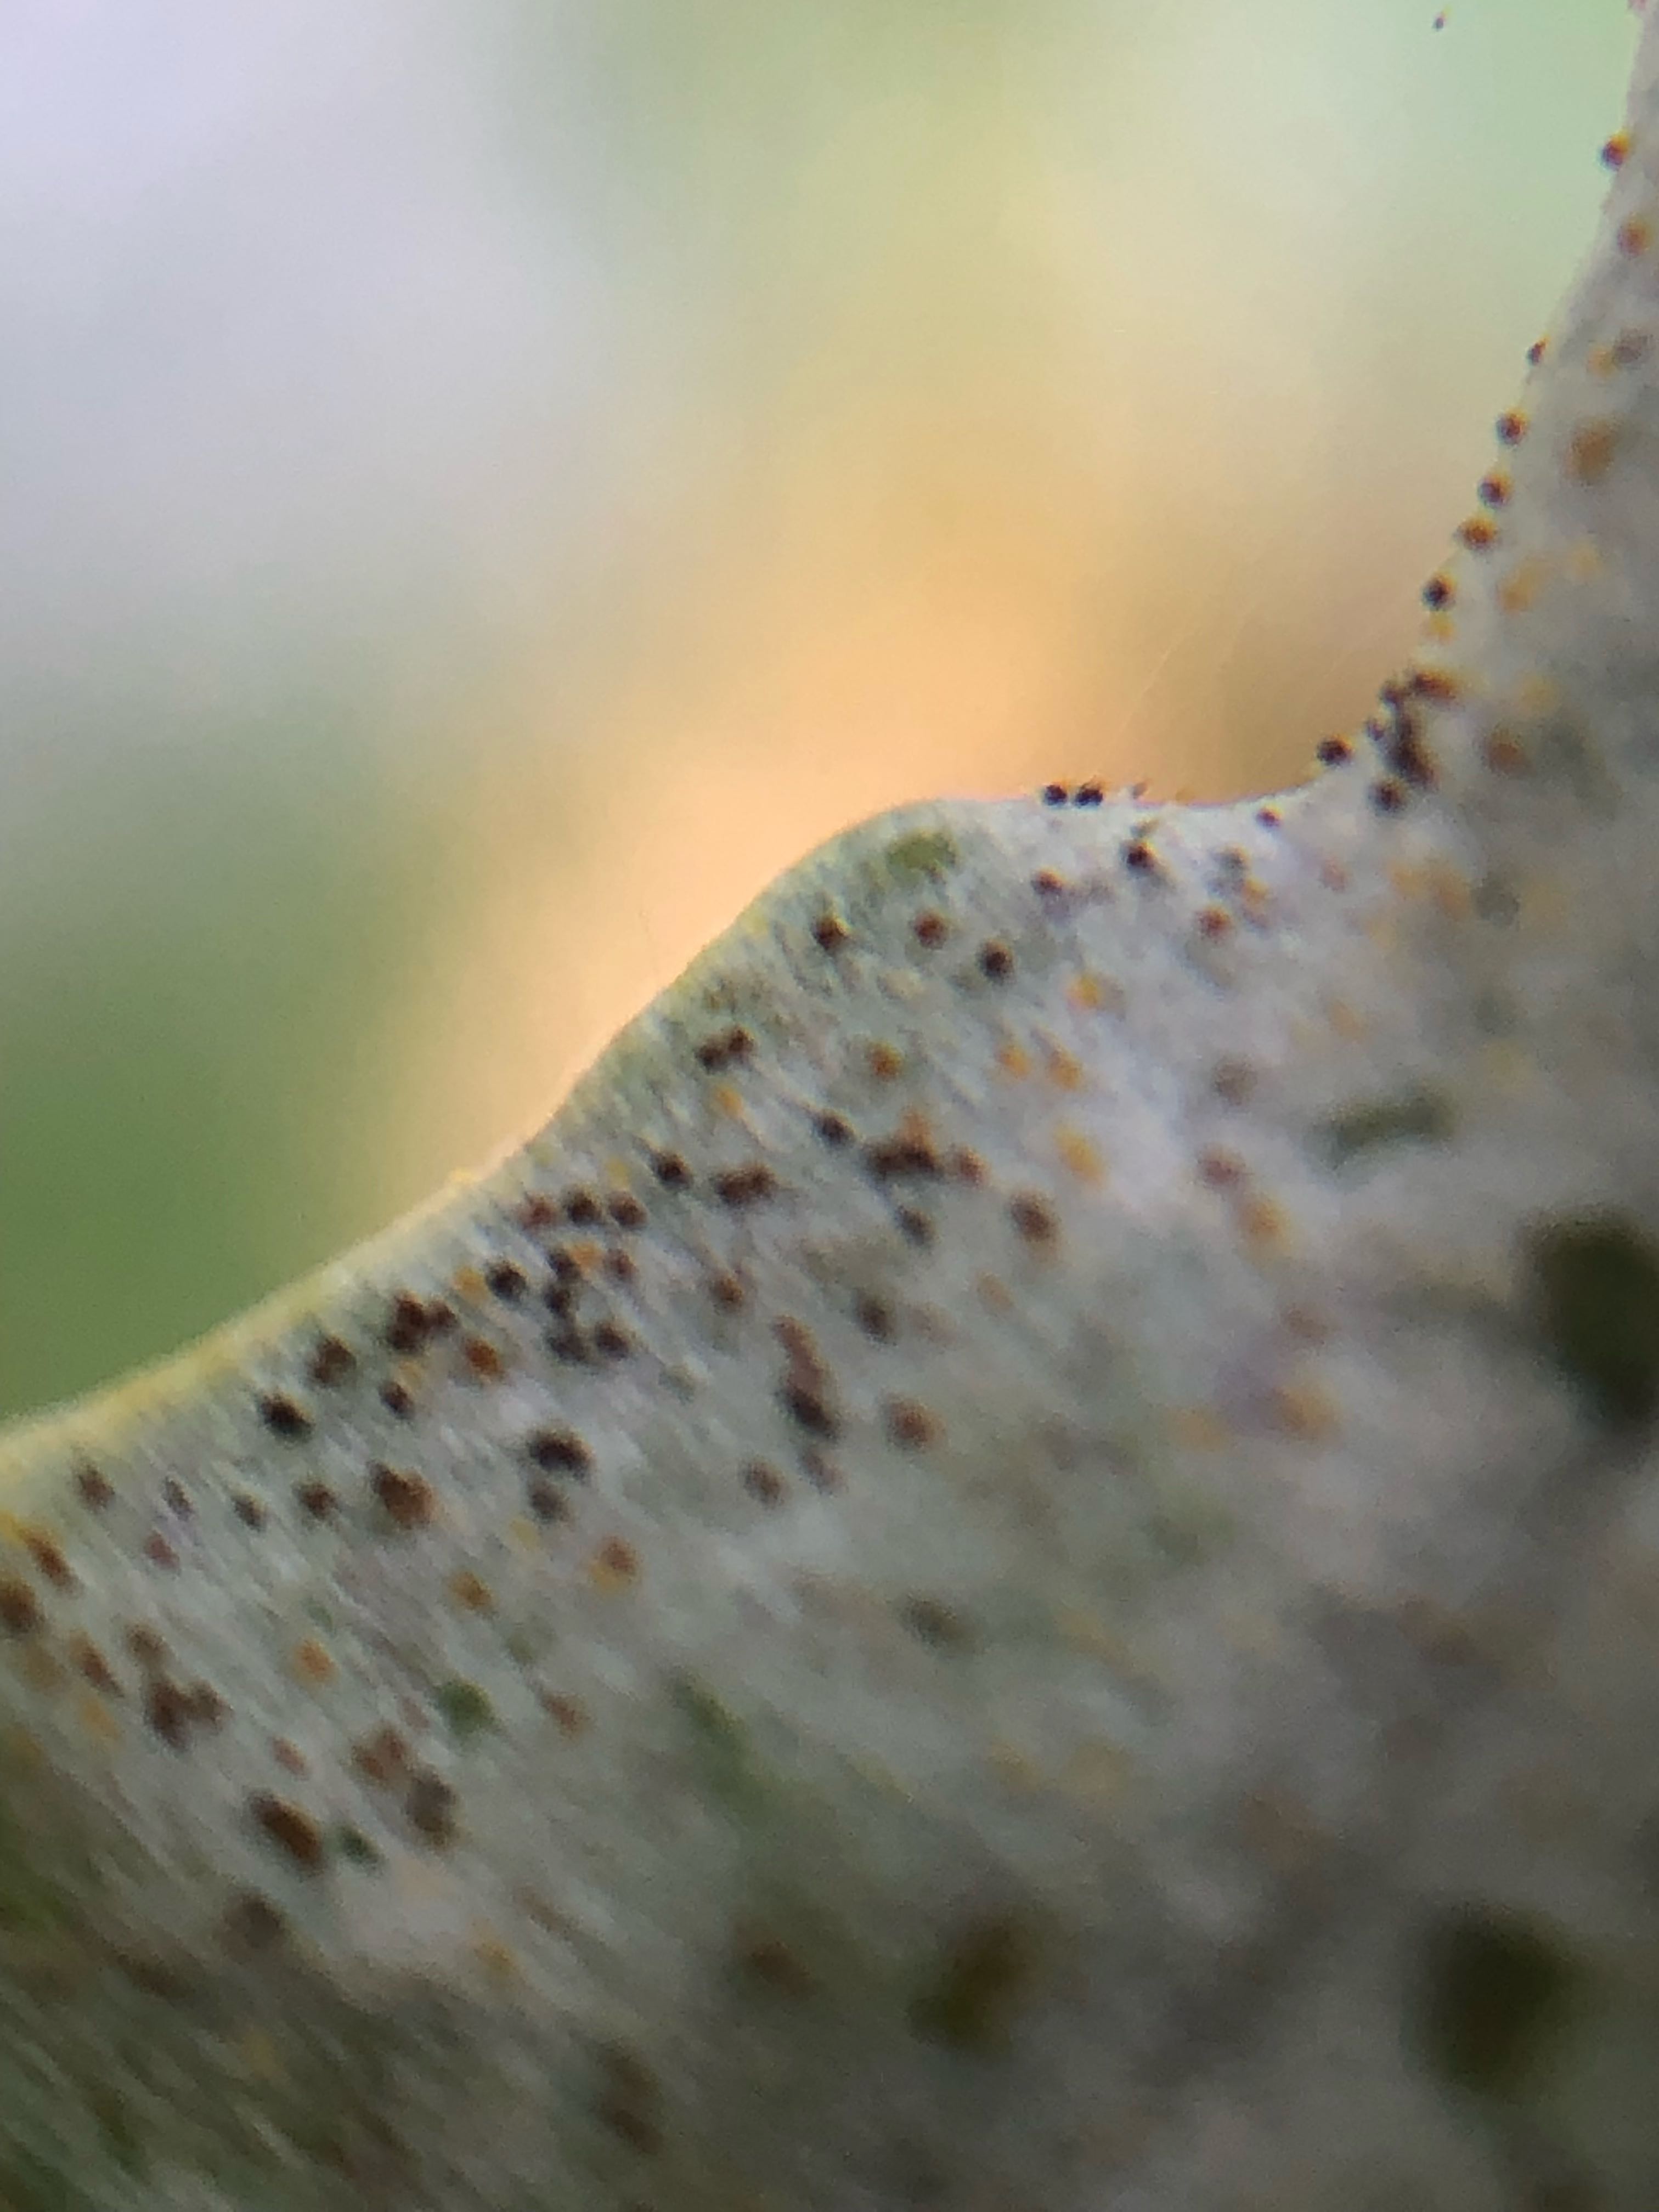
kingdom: Fungi
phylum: Ascomycota
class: Leotiomycetes
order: Helotiales
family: Erysiphaceae
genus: Erysiphe
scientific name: Erysiphe alphitoides
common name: ege-meldug
